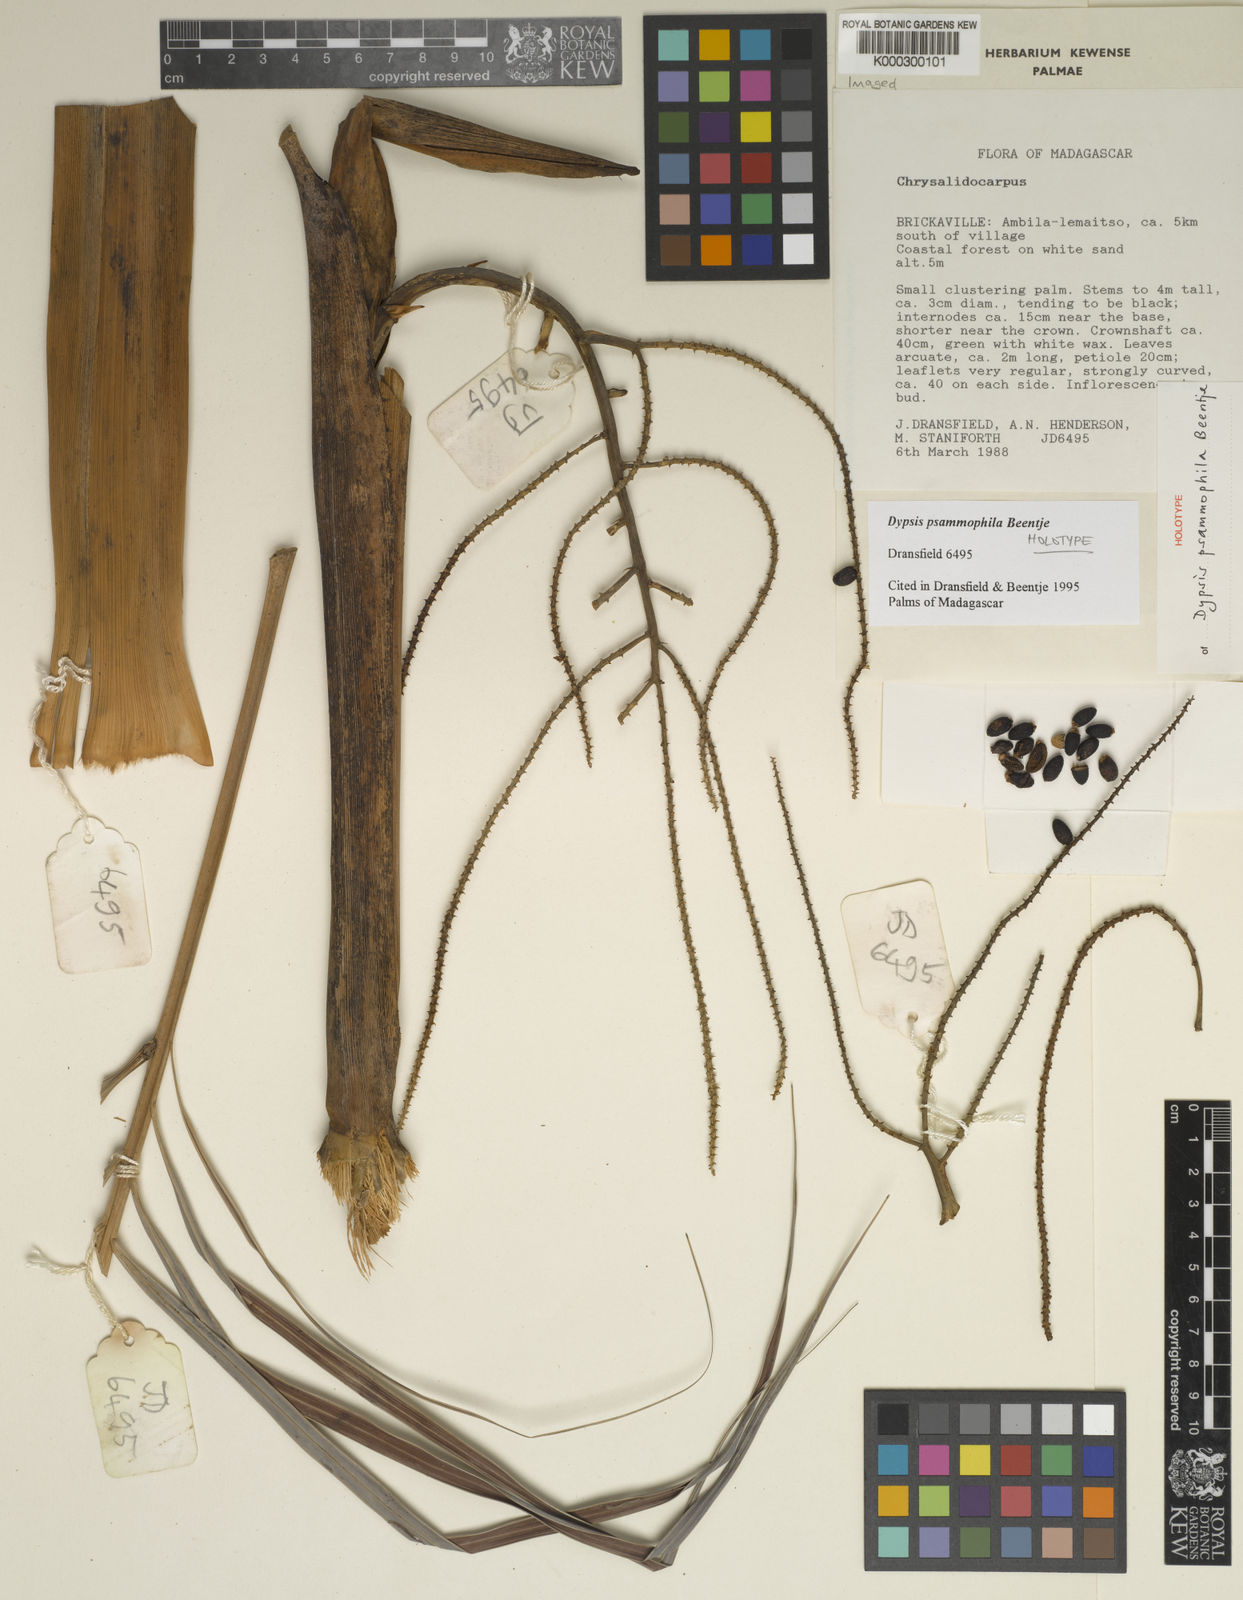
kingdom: Plantae
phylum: Tracheophyta
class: Liliopsida
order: Arecales
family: Arecaceae
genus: Dypsis
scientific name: Dypsis psammophila
